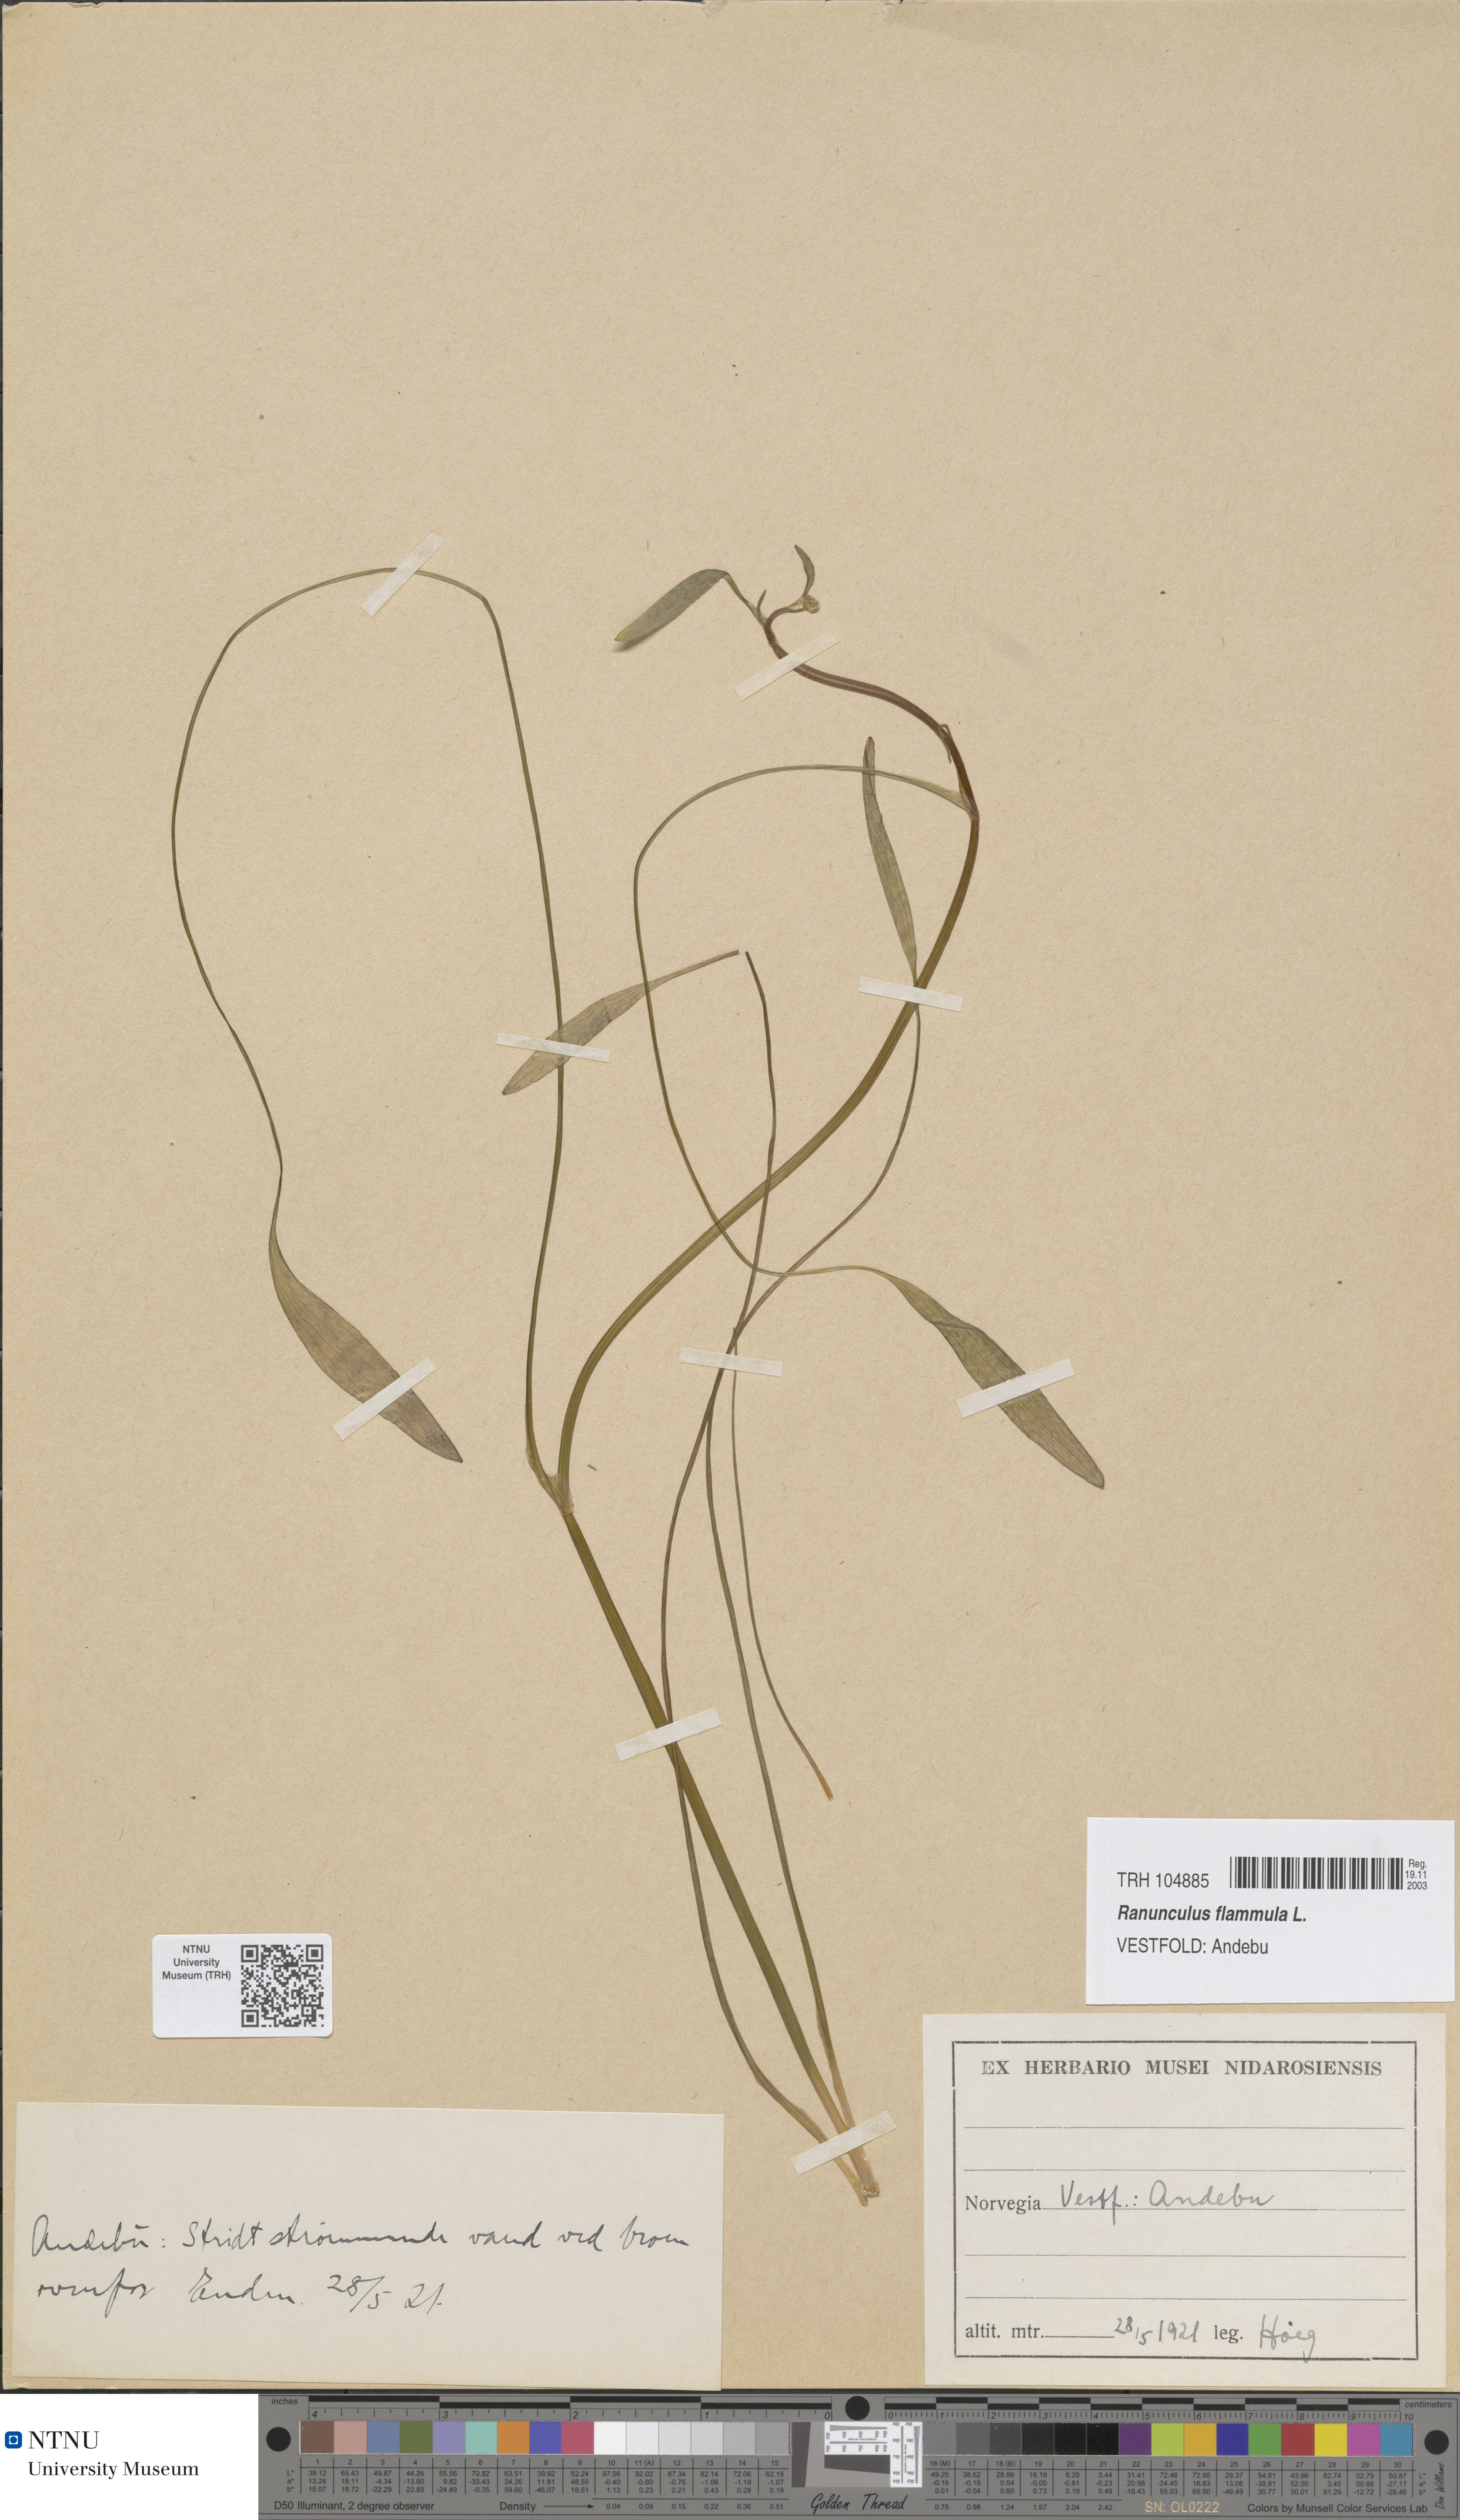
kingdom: Plantae
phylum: Tracheophyta
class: Magnoliopsida
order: Ranunculales
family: Ranunculaceae
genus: Ranunculus
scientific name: Ranunculus flammula
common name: Lesser spearwort
